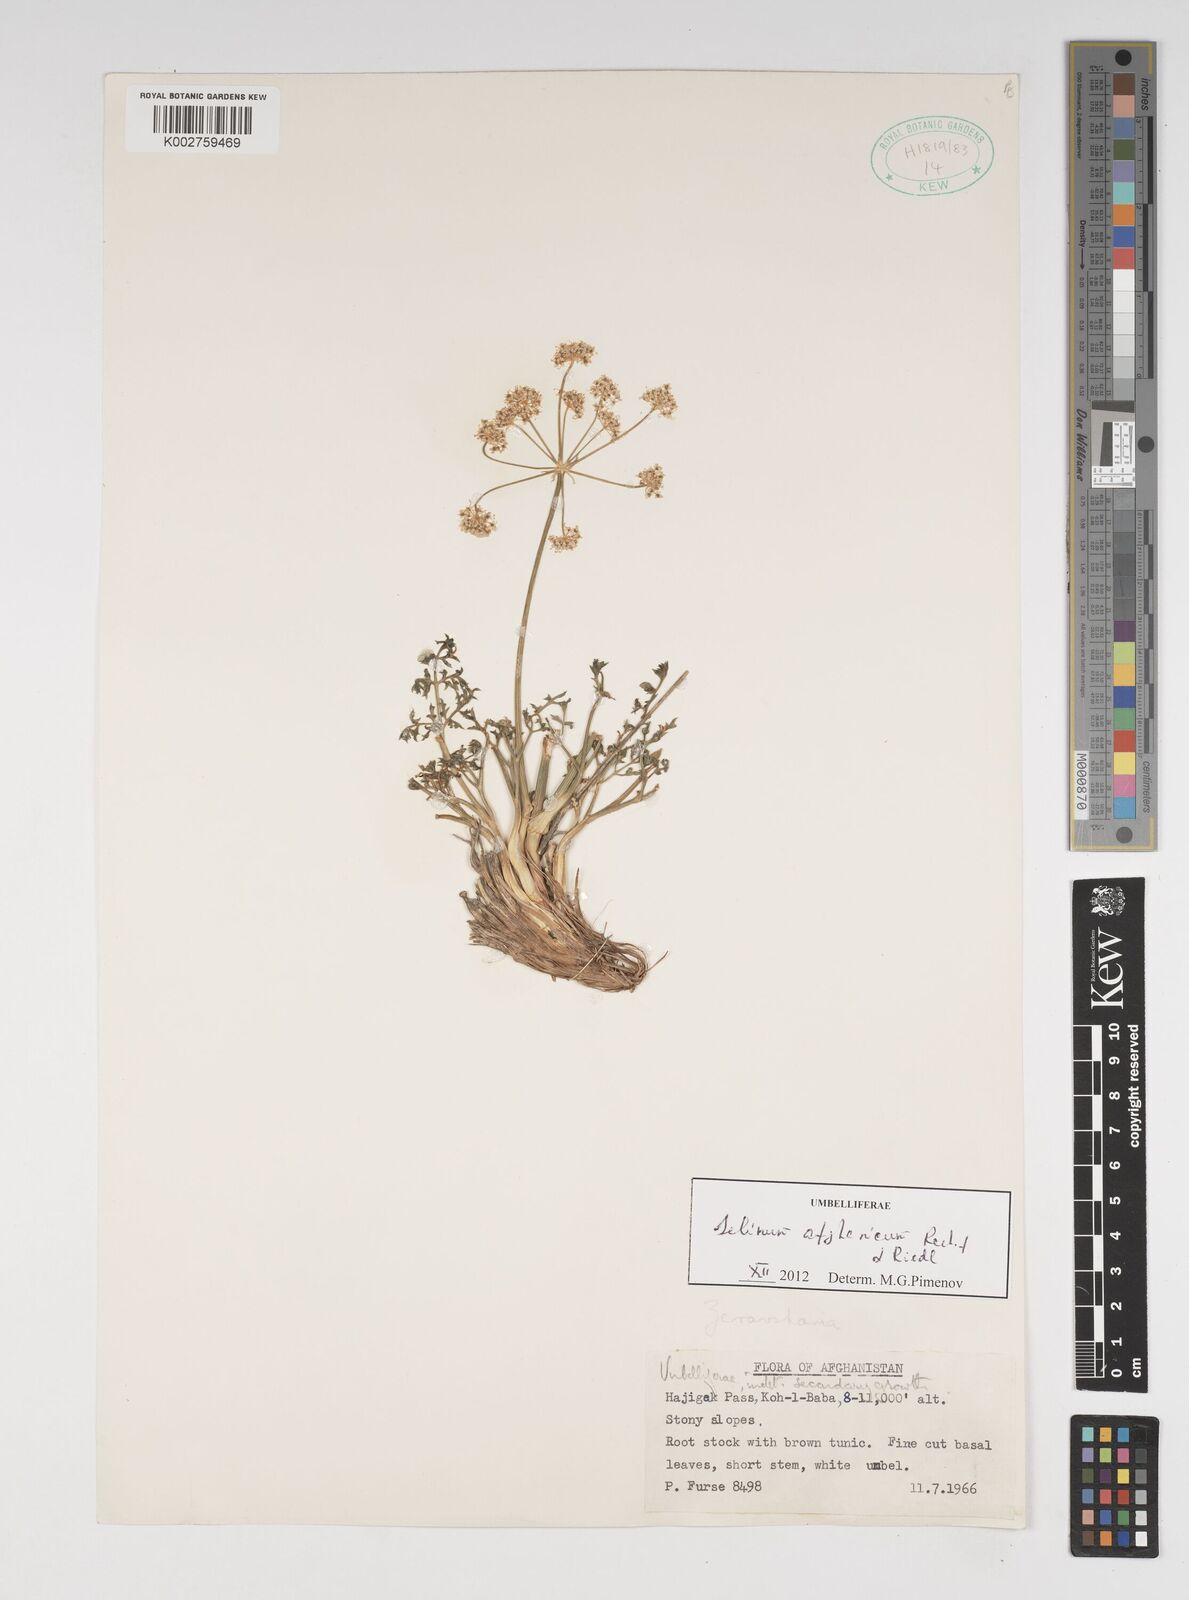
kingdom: Plantae
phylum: Tracheophyta
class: Magnoliopsida
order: Apiales
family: Apiaceae
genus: Cephalopodum
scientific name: Cephalopodum afghanicum
